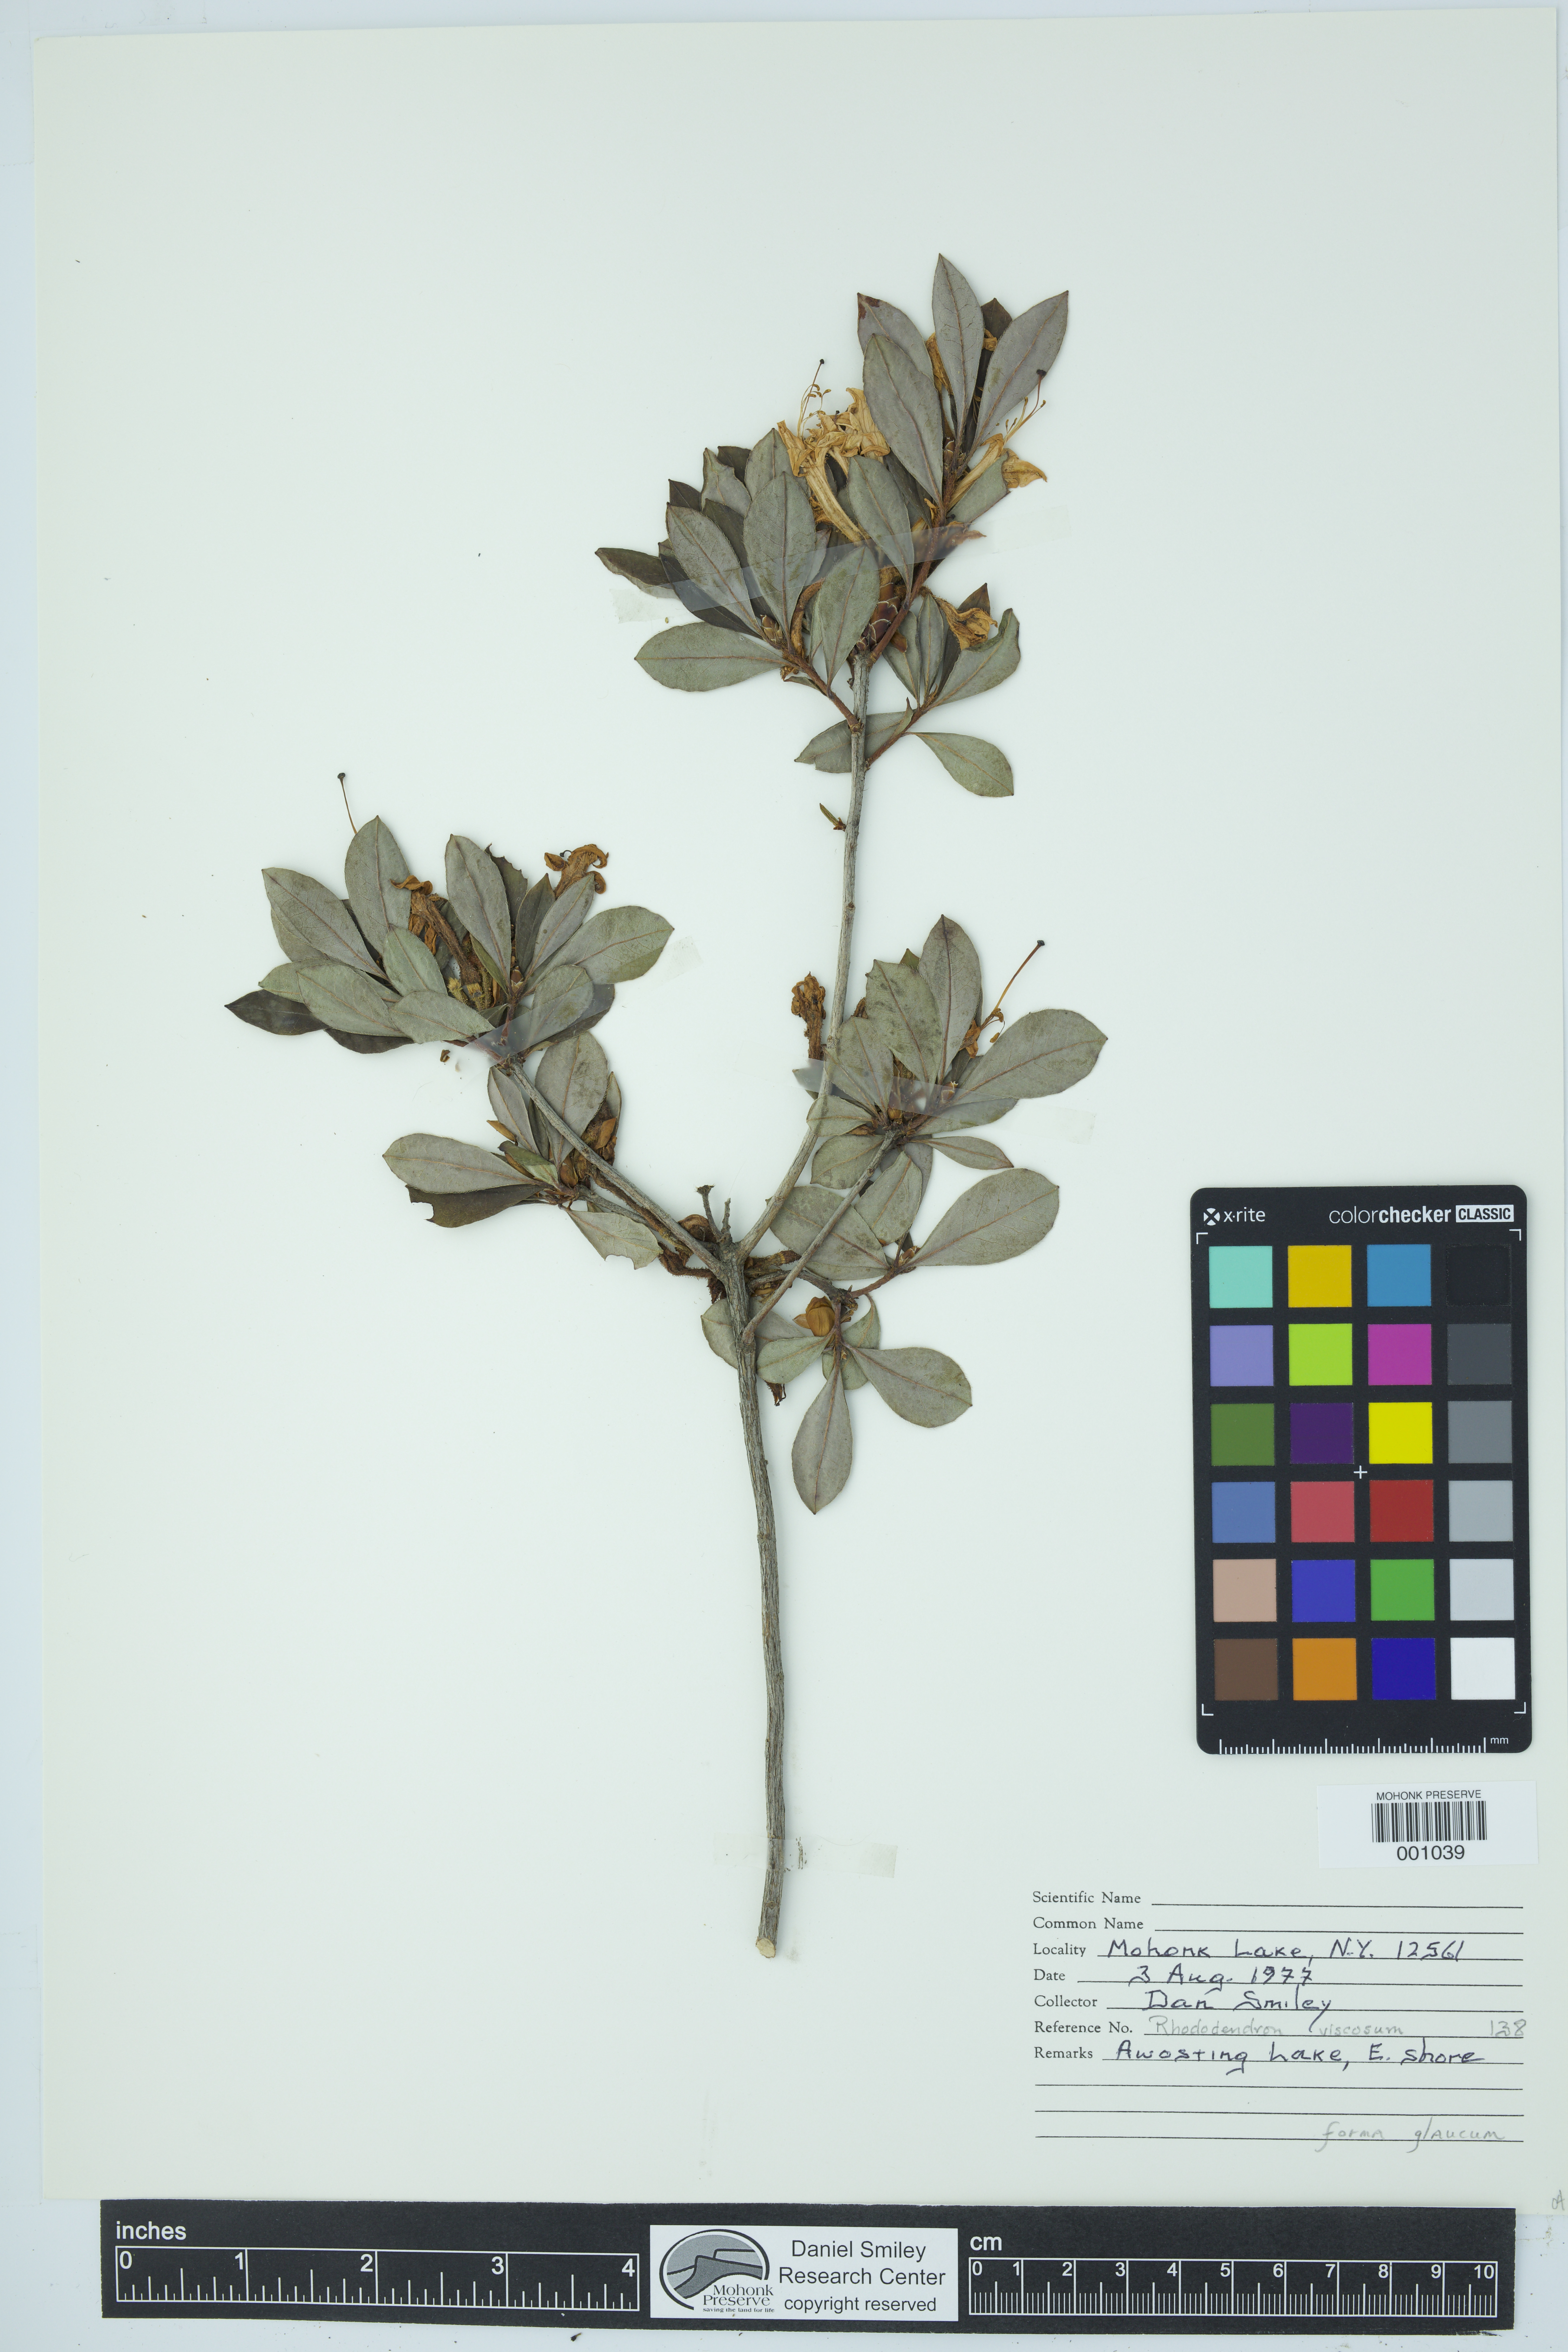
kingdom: Plantae
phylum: Tracheophyta
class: Magnoliopsida
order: Ericales
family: Ericaceae
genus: Rhododendron
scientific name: Rhododendron viscosum
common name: Clammy azalea
